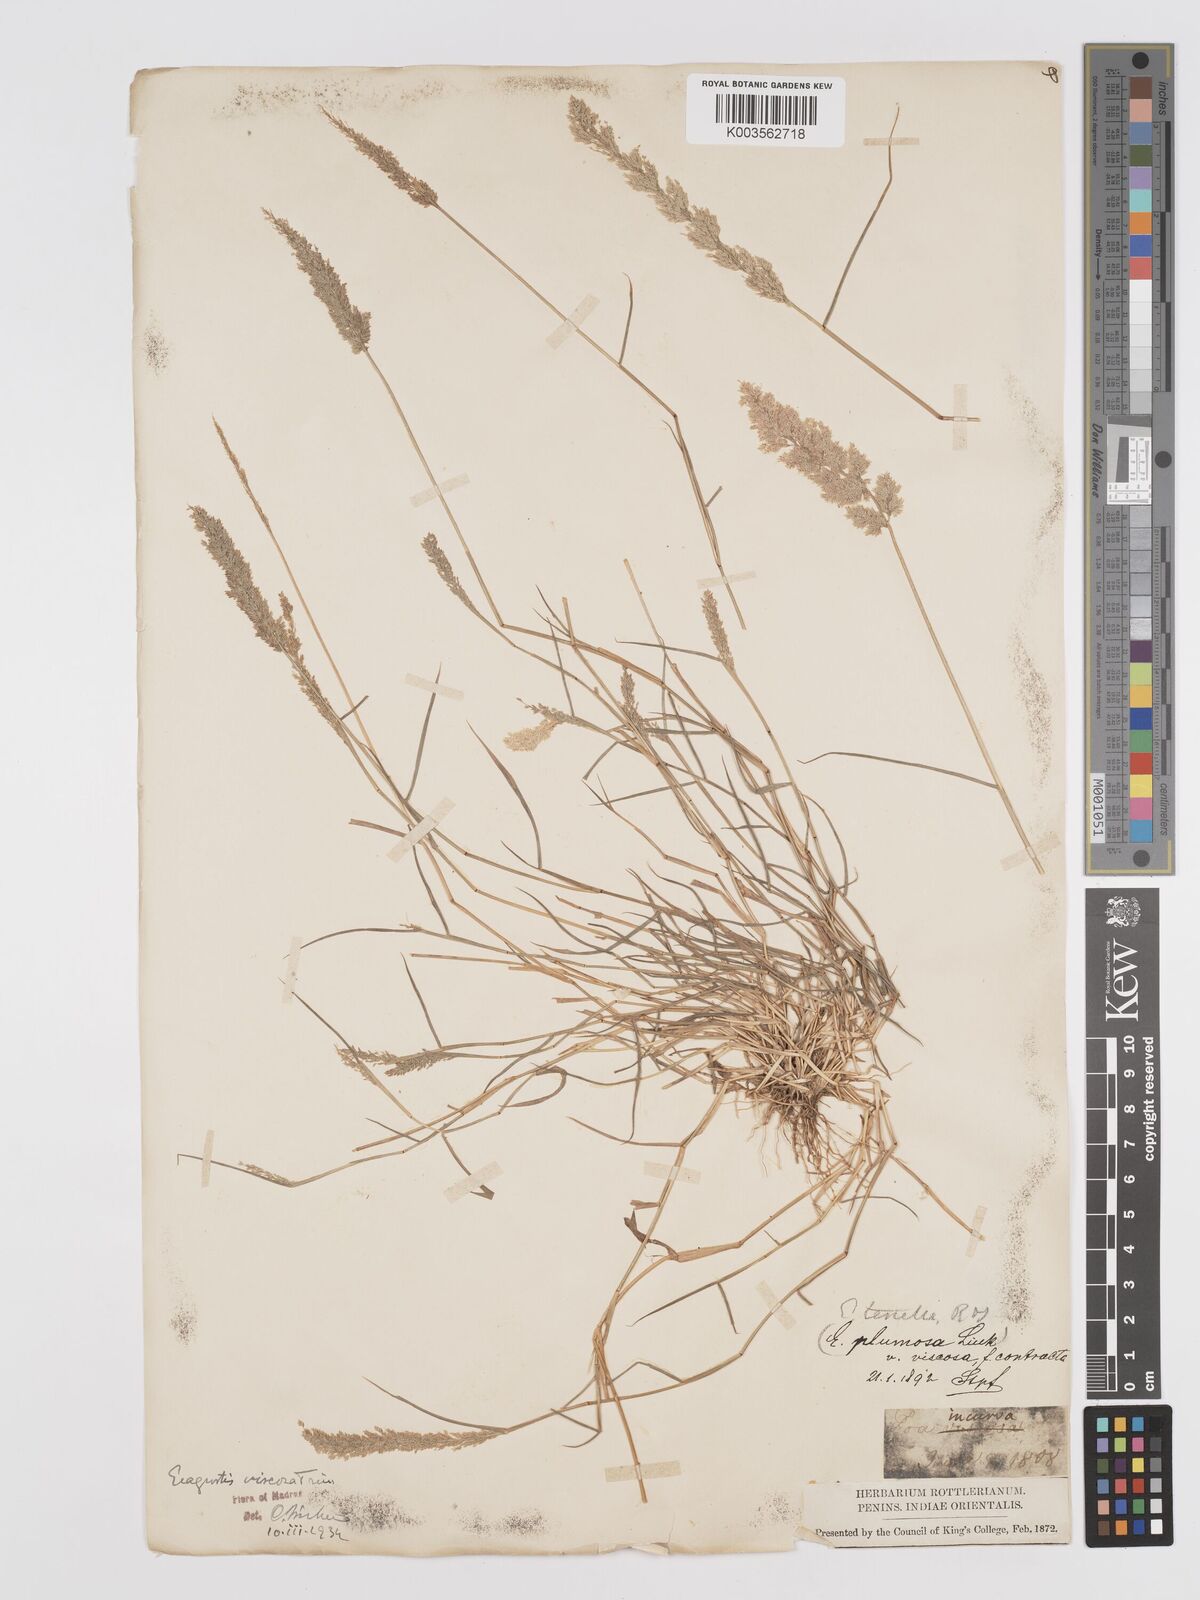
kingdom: Plantae
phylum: Tracheophyta
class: Liliopsida
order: Poales
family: Poaceae
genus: Eragrostis
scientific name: Eragrostis riparia
